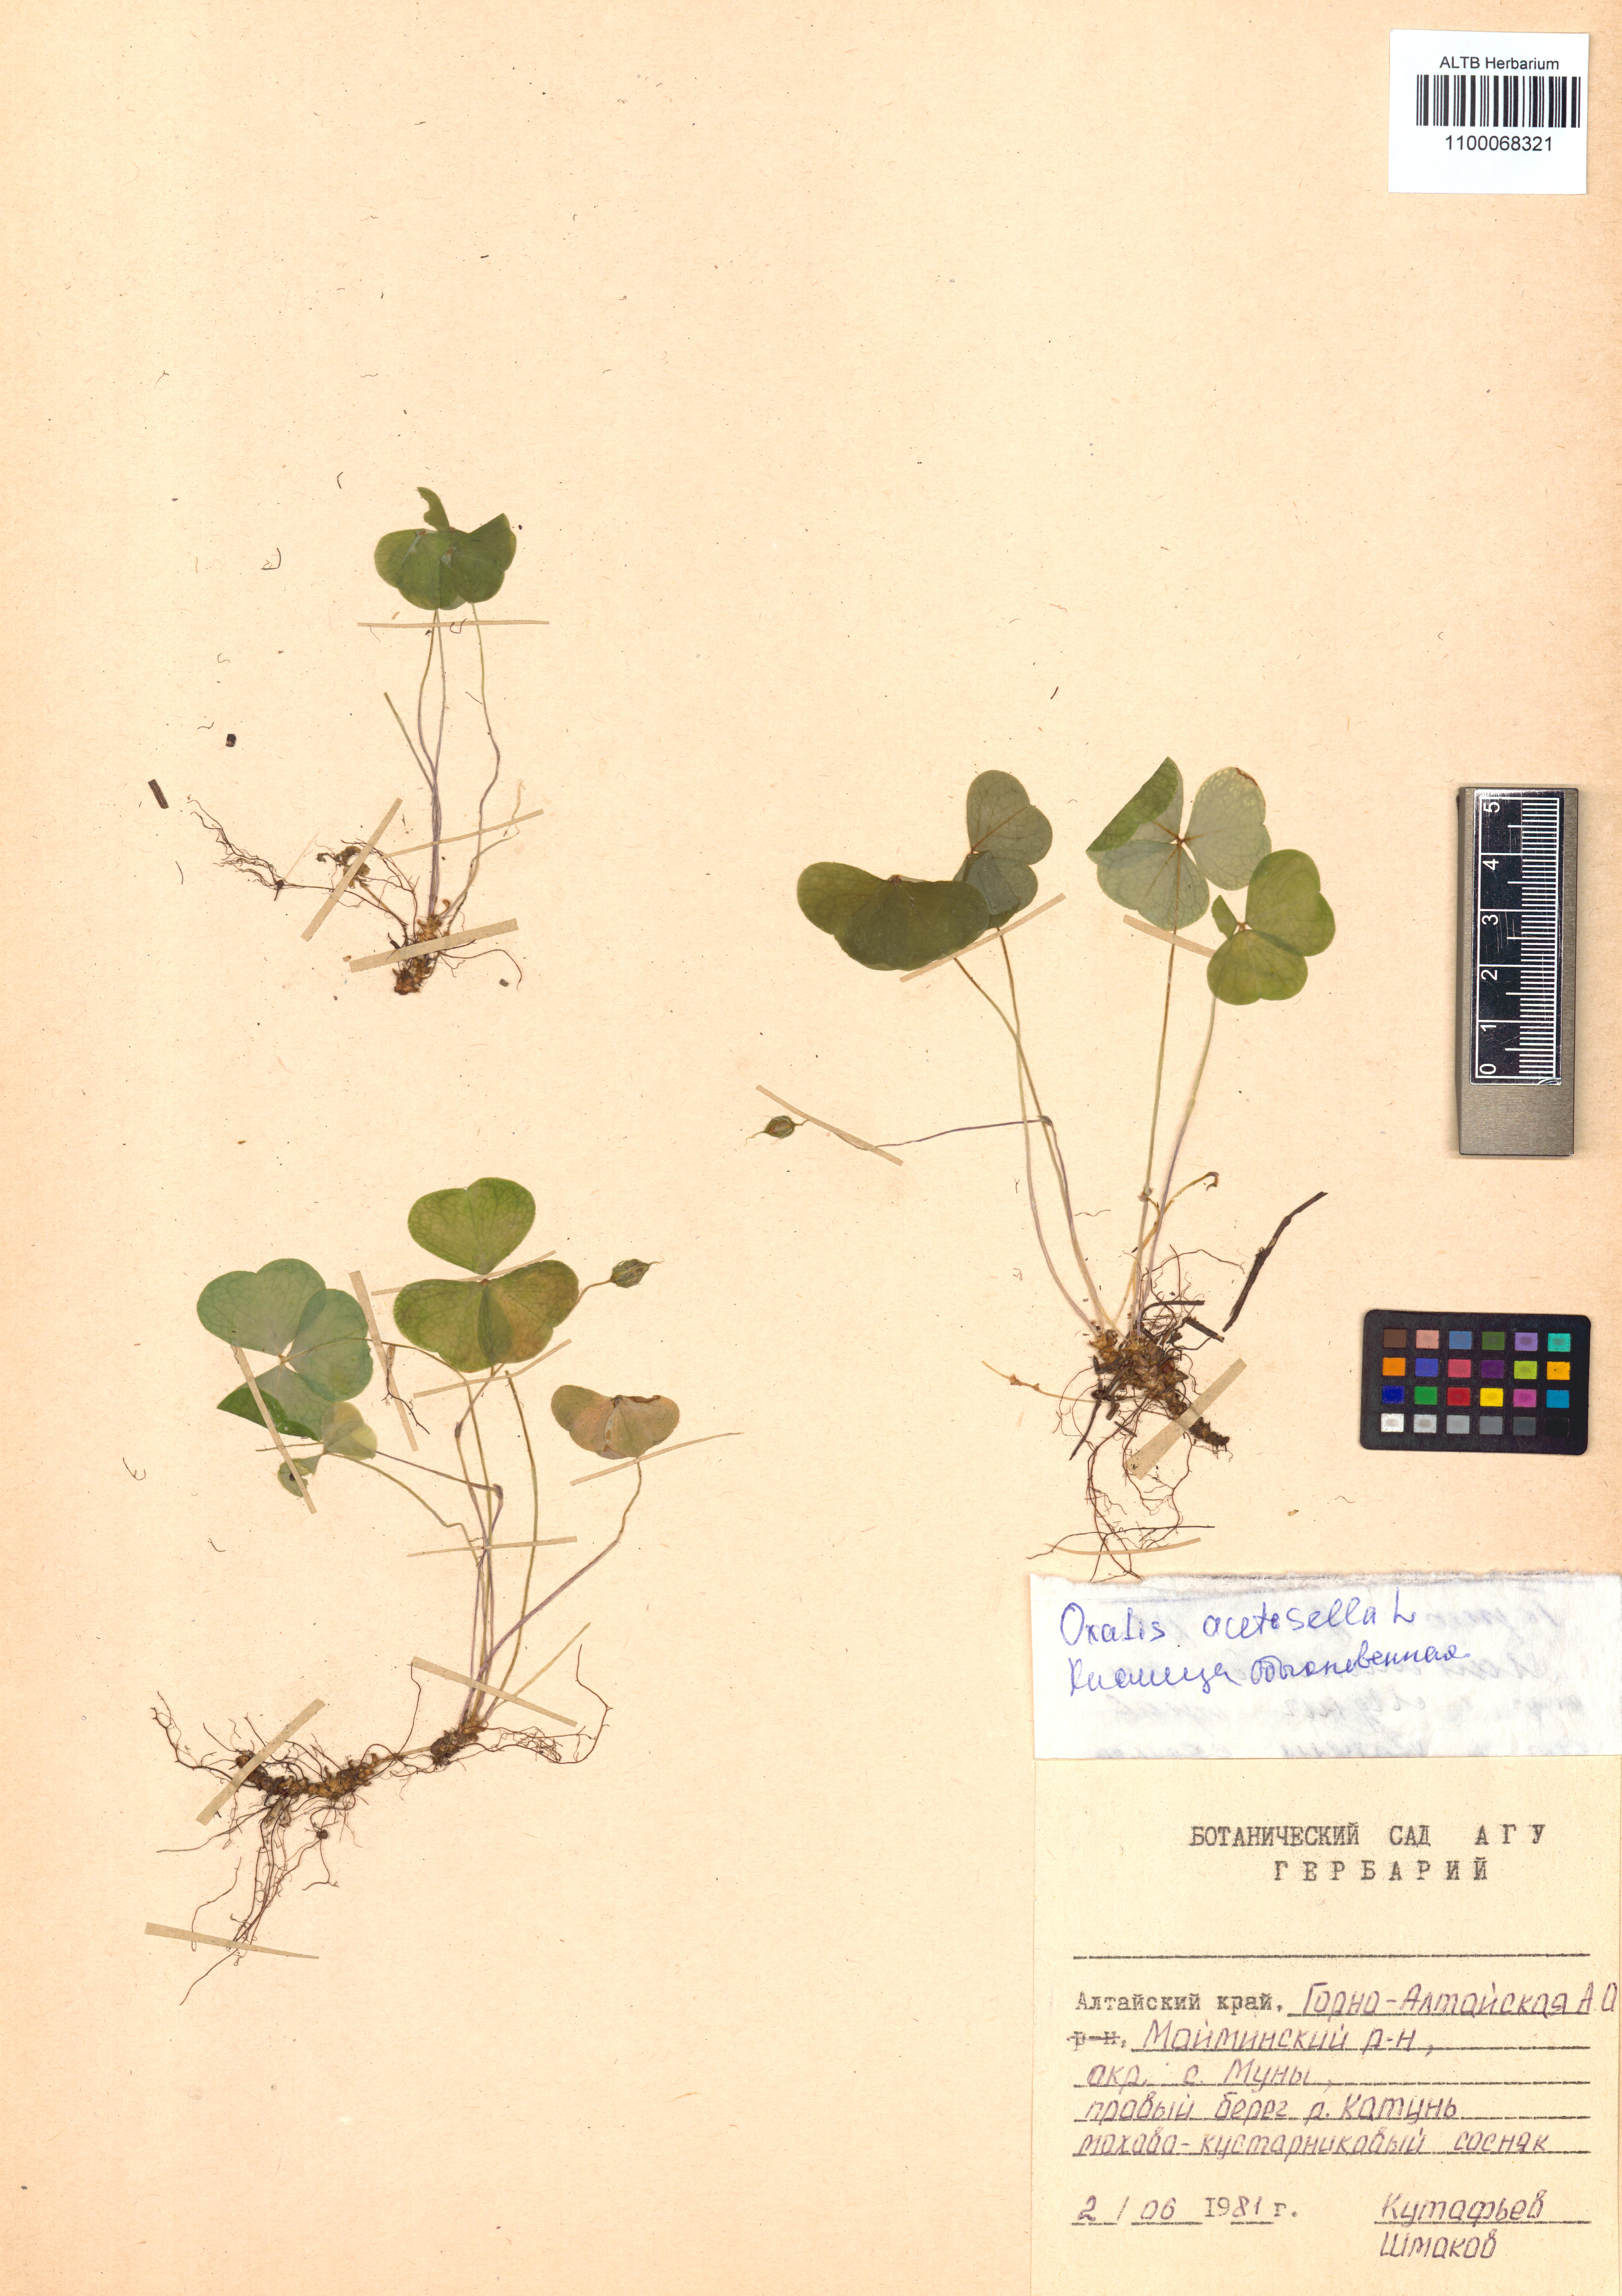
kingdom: Plantae
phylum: Tracheophyta
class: Magnoliopsida
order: Oxalidales
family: Oxalidaceae
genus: Oxalis
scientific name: Oxalis acetosella
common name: Wood-sorrel
